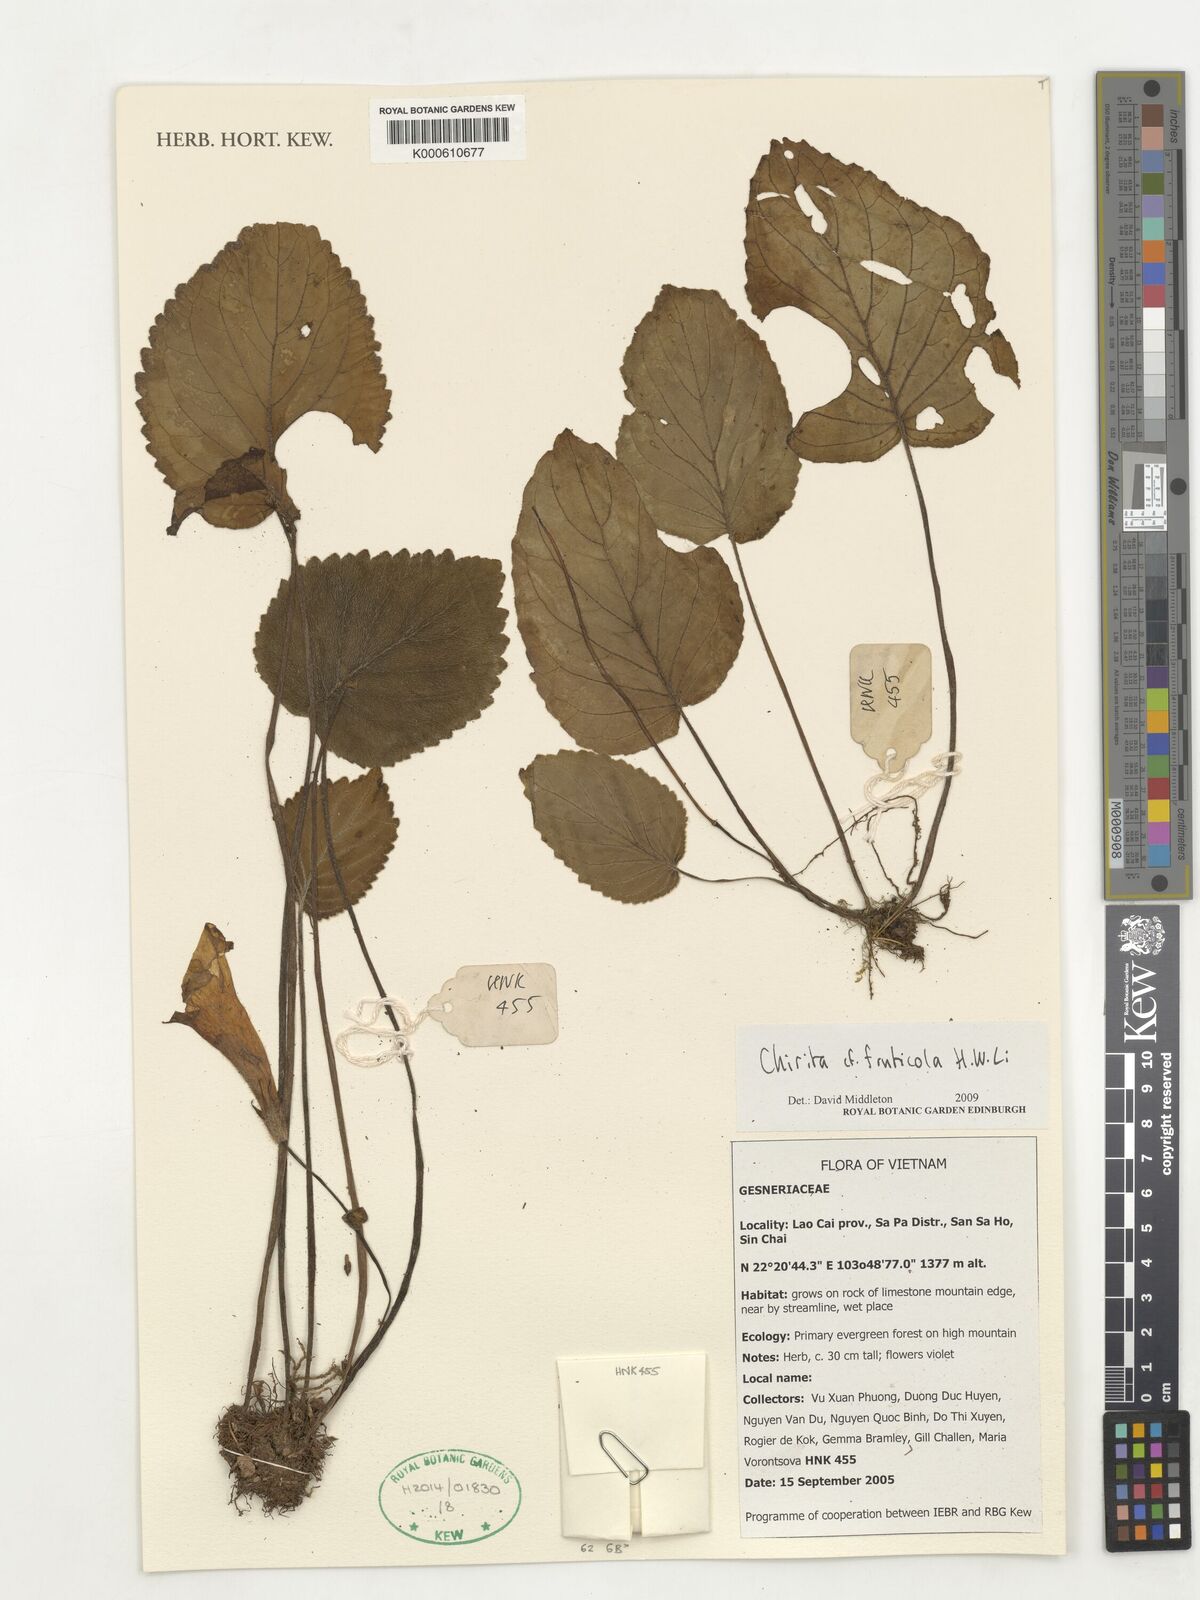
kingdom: Plantae
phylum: Tracheophyta
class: Magnoliopsida
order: Lamiales
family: Gesneriaceae
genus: Henckelia
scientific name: Henckelia fruticola
